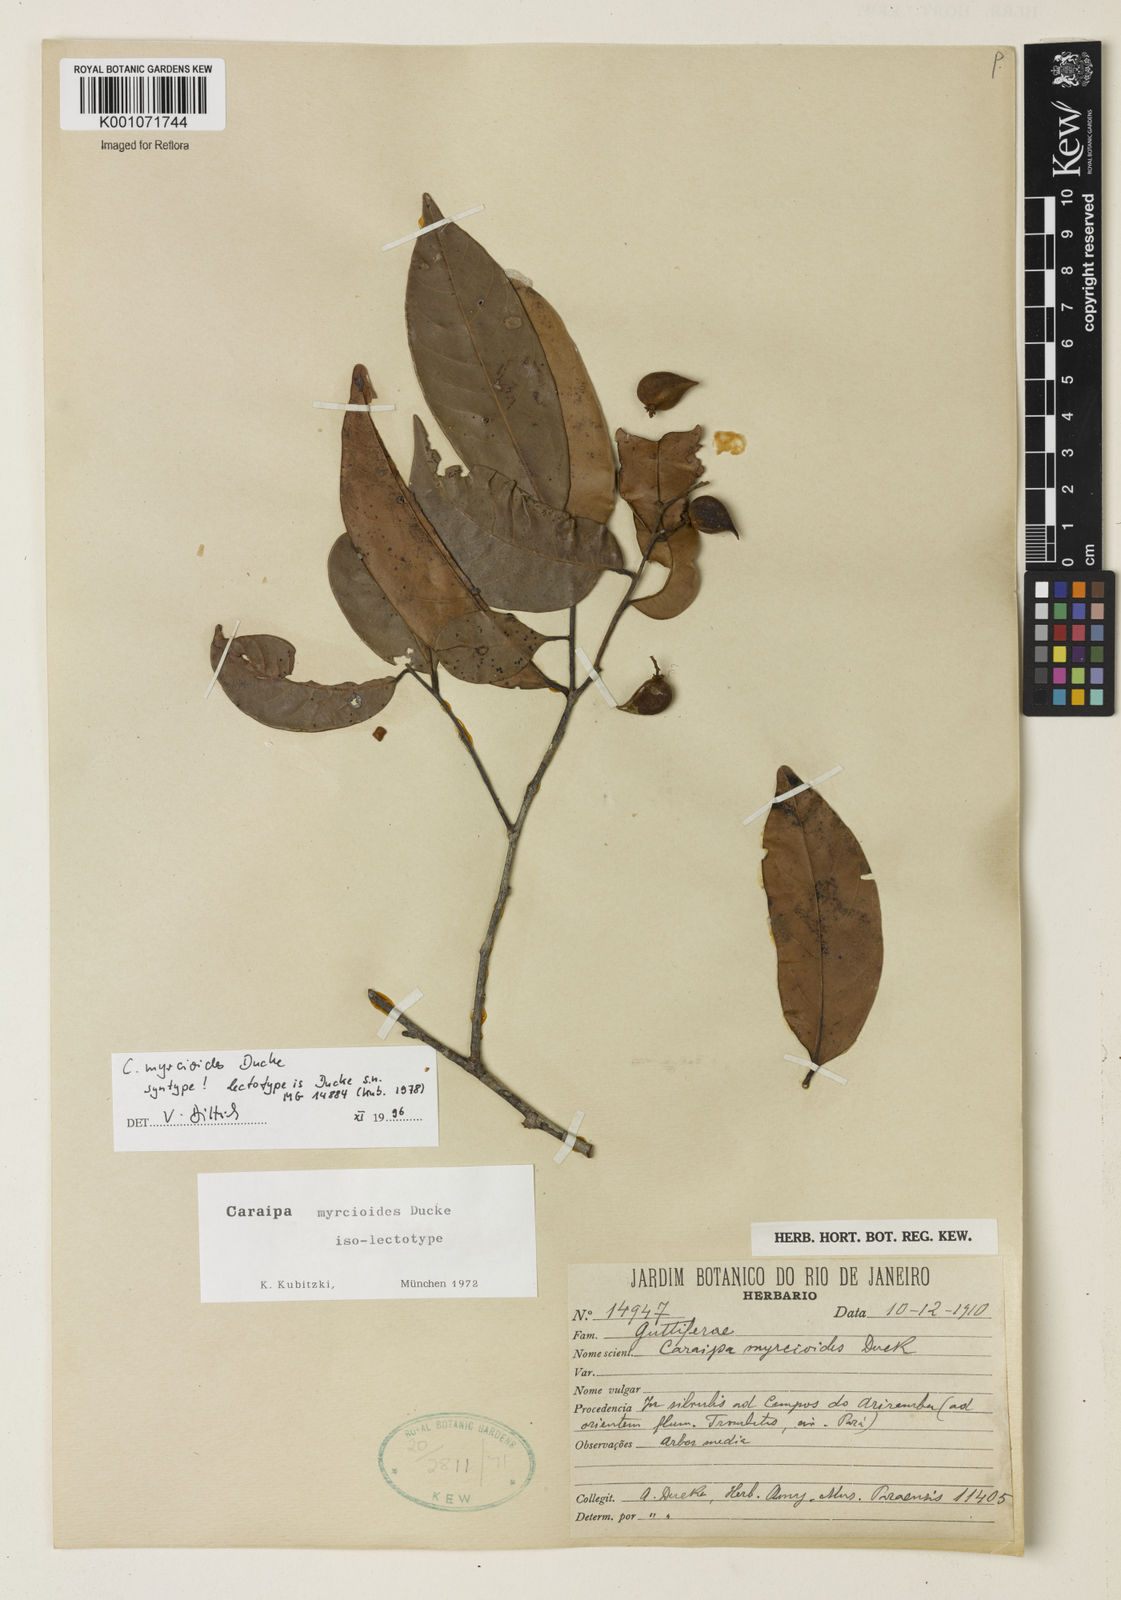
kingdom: Plantae
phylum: Tracheophyta
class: Magnoliopsida
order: Malpighiales
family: Calophyllaceae
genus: Caraipa
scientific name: Caraipa myrcioides
